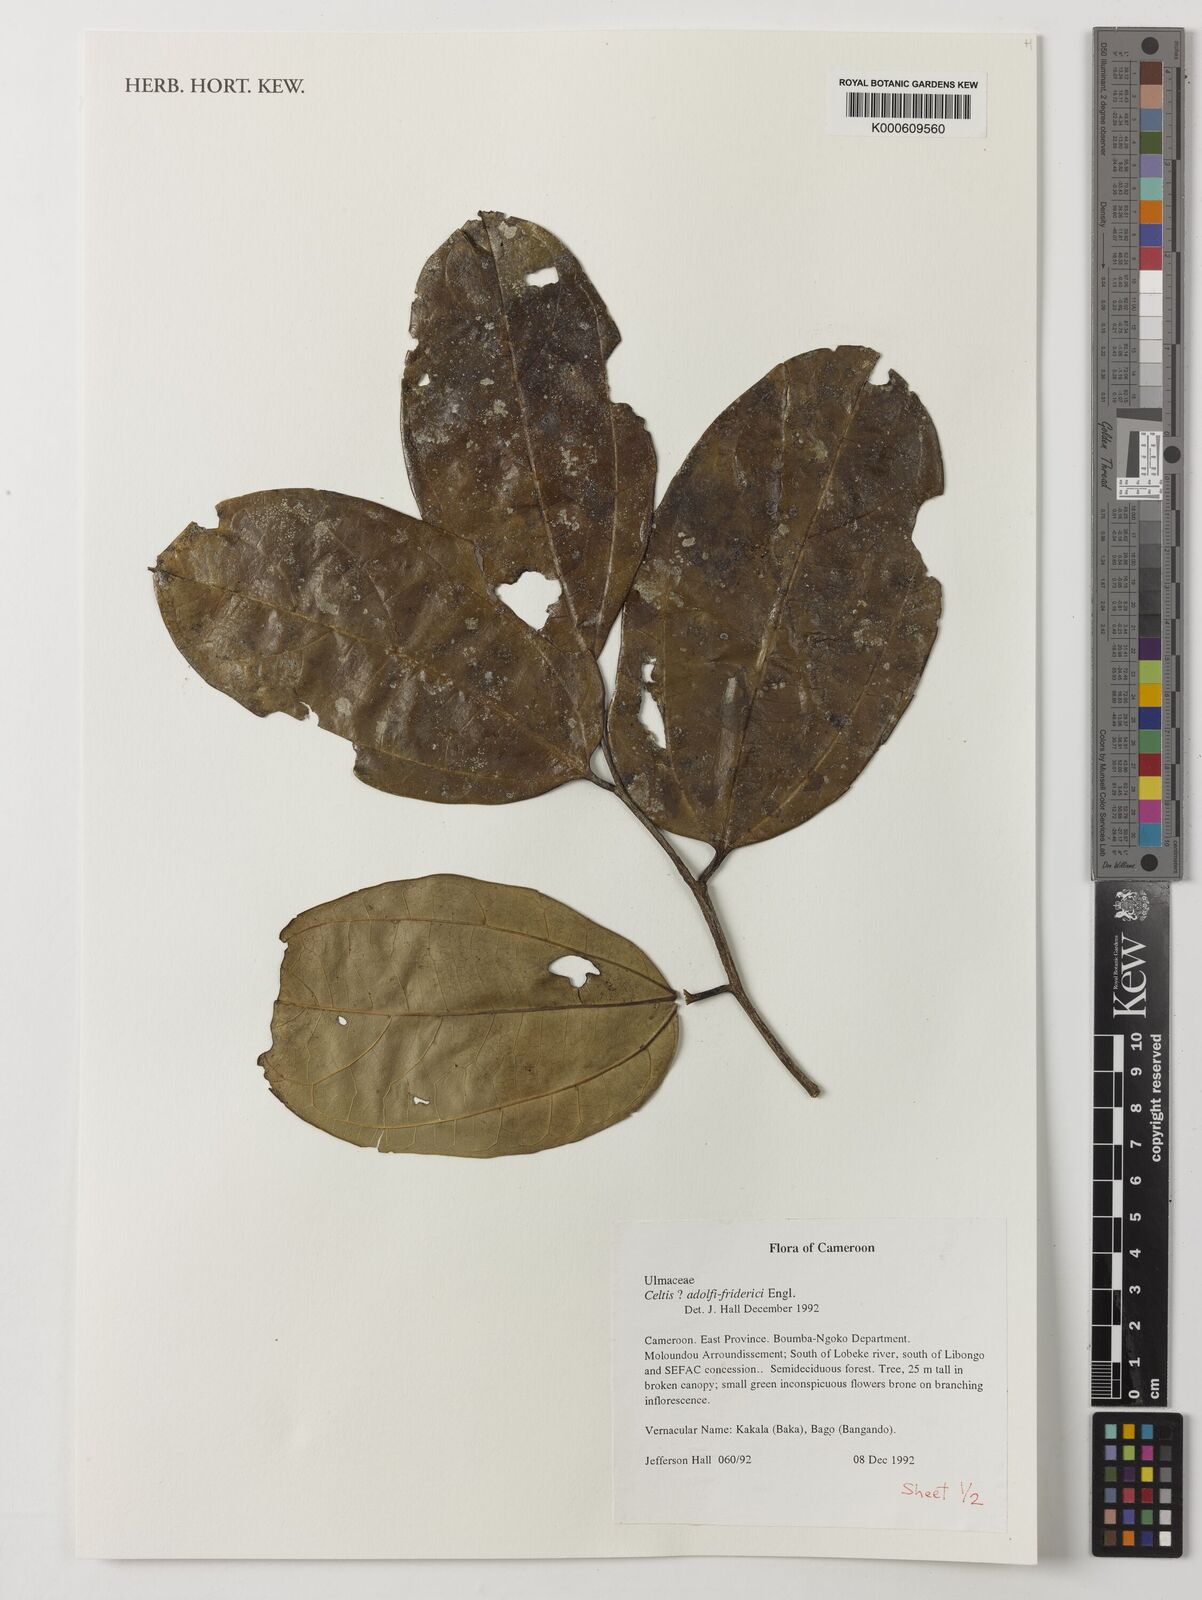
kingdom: Plantae
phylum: Tracheophyta
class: Magnoliopsida
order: Rosales
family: Cannabaceae
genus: Celtis
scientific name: Celtis adolfi-friderici
